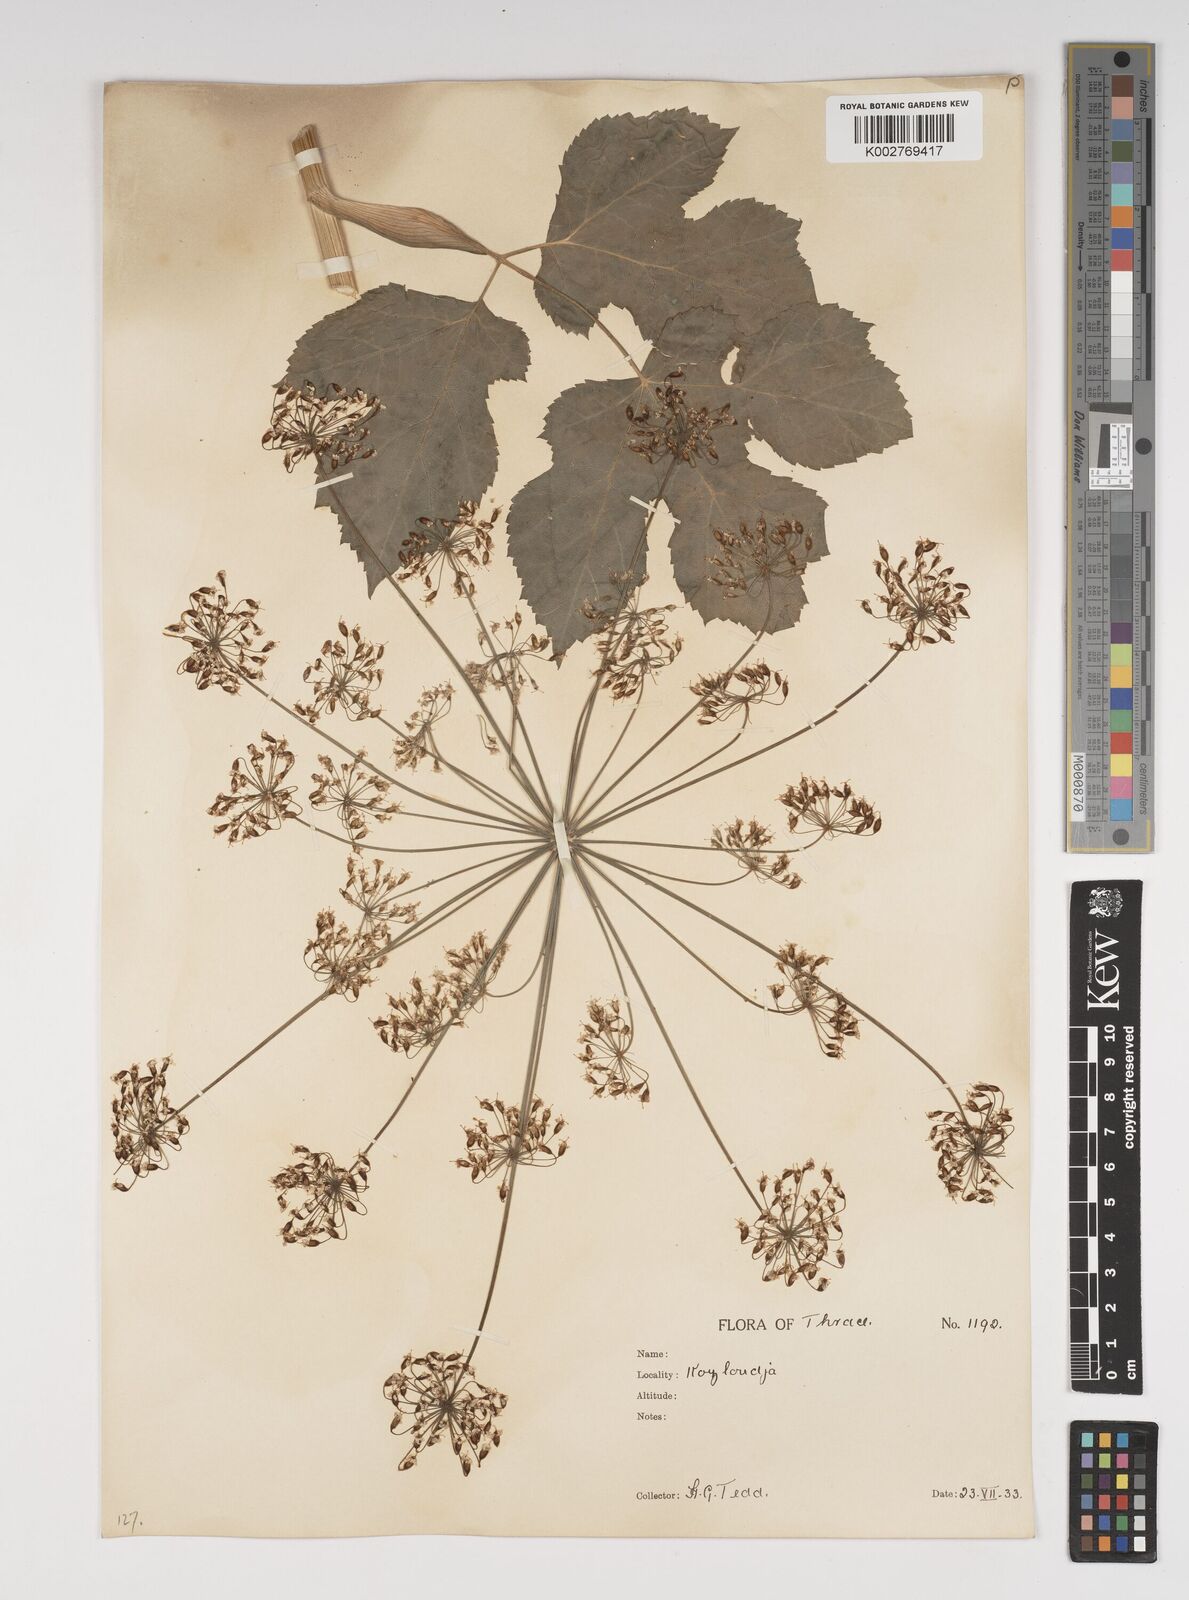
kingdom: Plantae
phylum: Tracheophyta
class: Magnoliopsida
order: Apiales
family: Apiaceae
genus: Heracleum
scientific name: Heracleum sphondylium
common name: Hogweed
